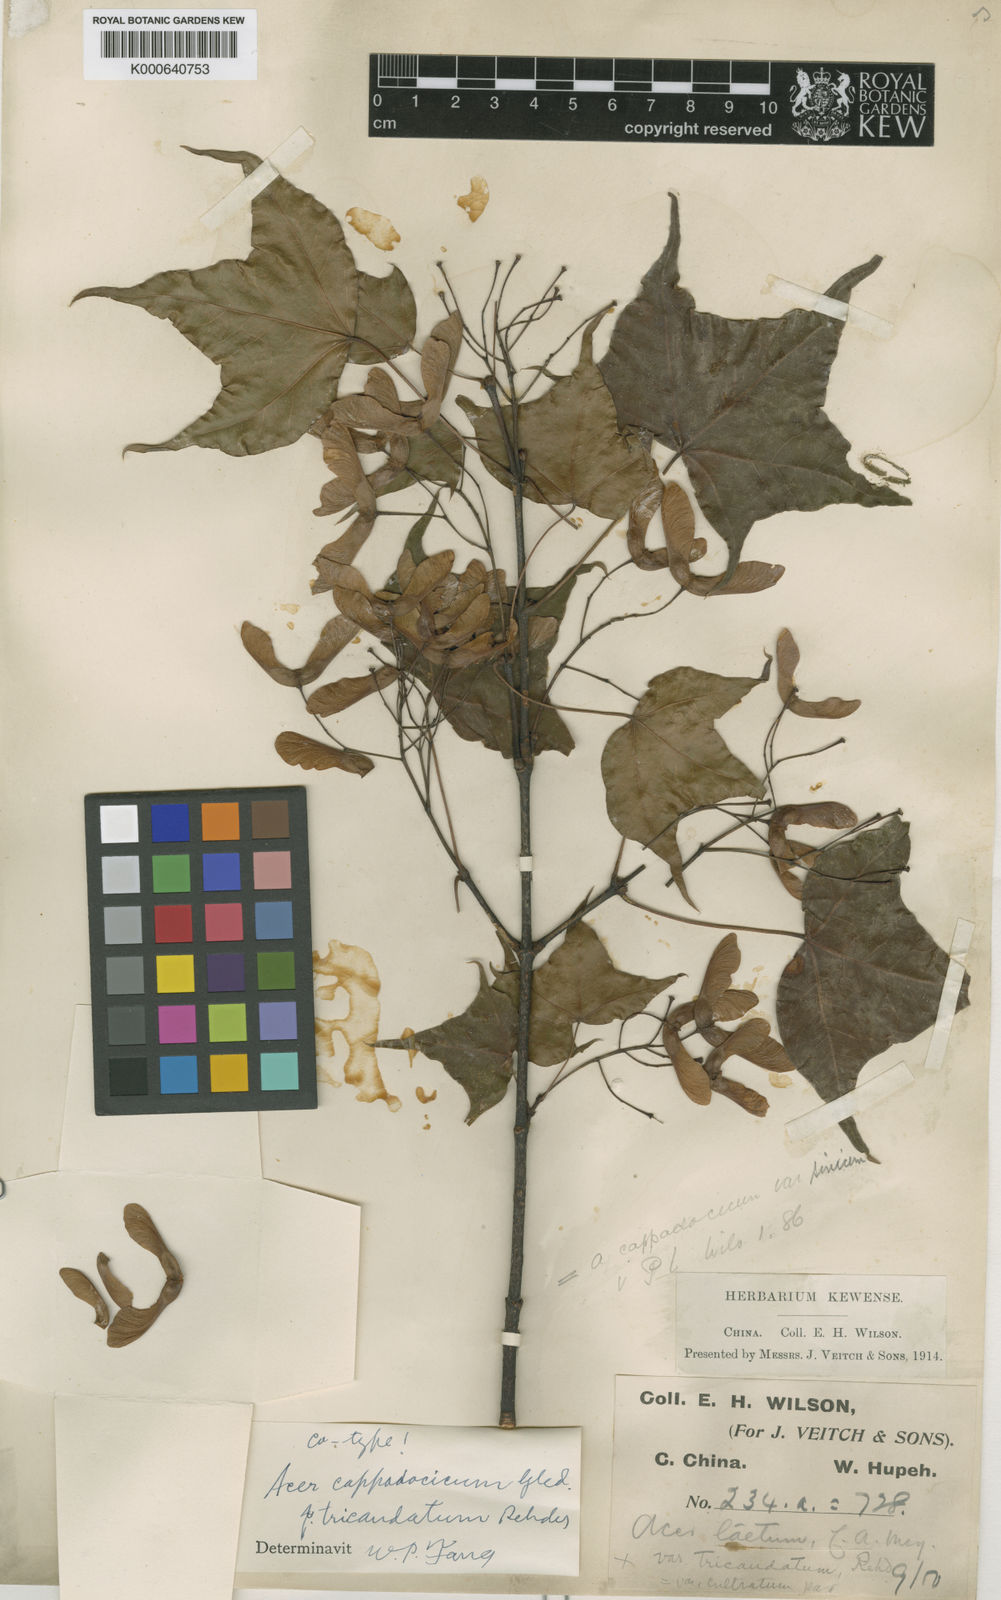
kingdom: Plantae
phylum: Tracheophyta
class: Magnoliopsida
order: Sapindales
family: Sapindaceae
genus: Acer
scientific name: Acer
